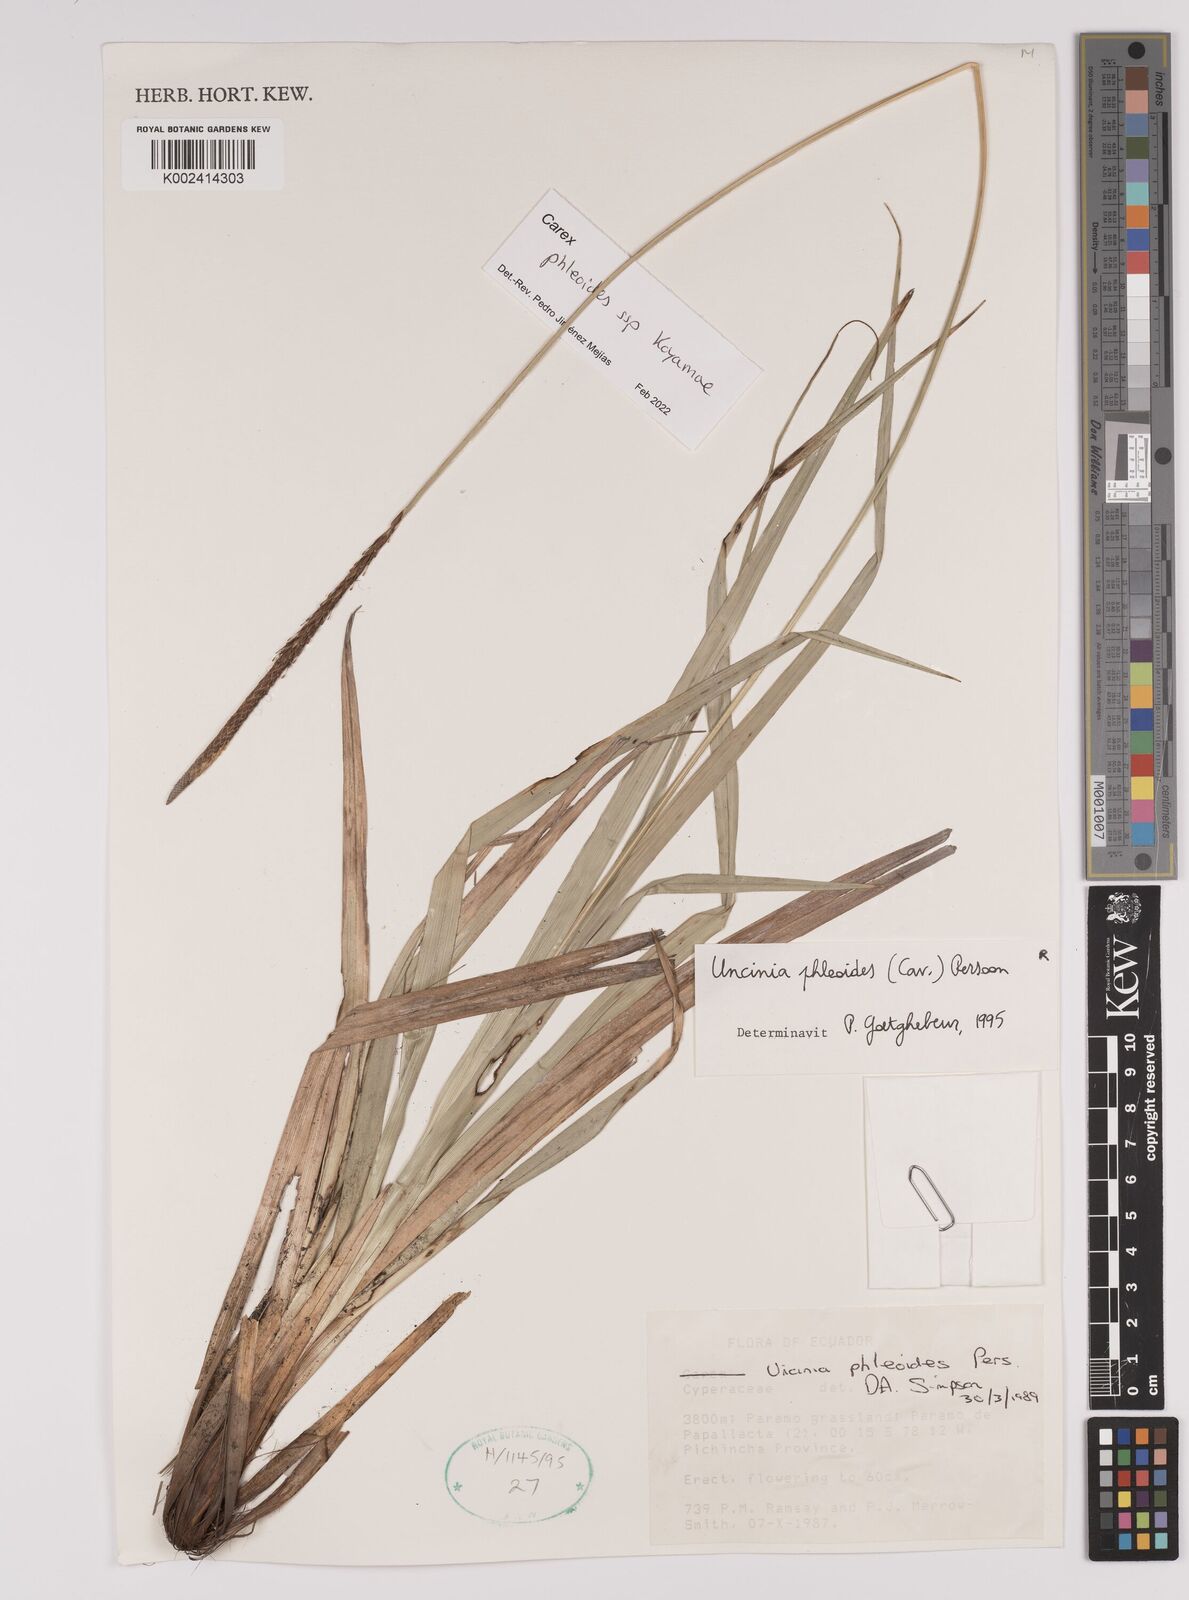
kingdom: Plantae
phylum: Tracheophyta
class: Liliopsida
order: Poales
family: Cyperaceae
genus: Carex
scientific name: Carex phleoides
